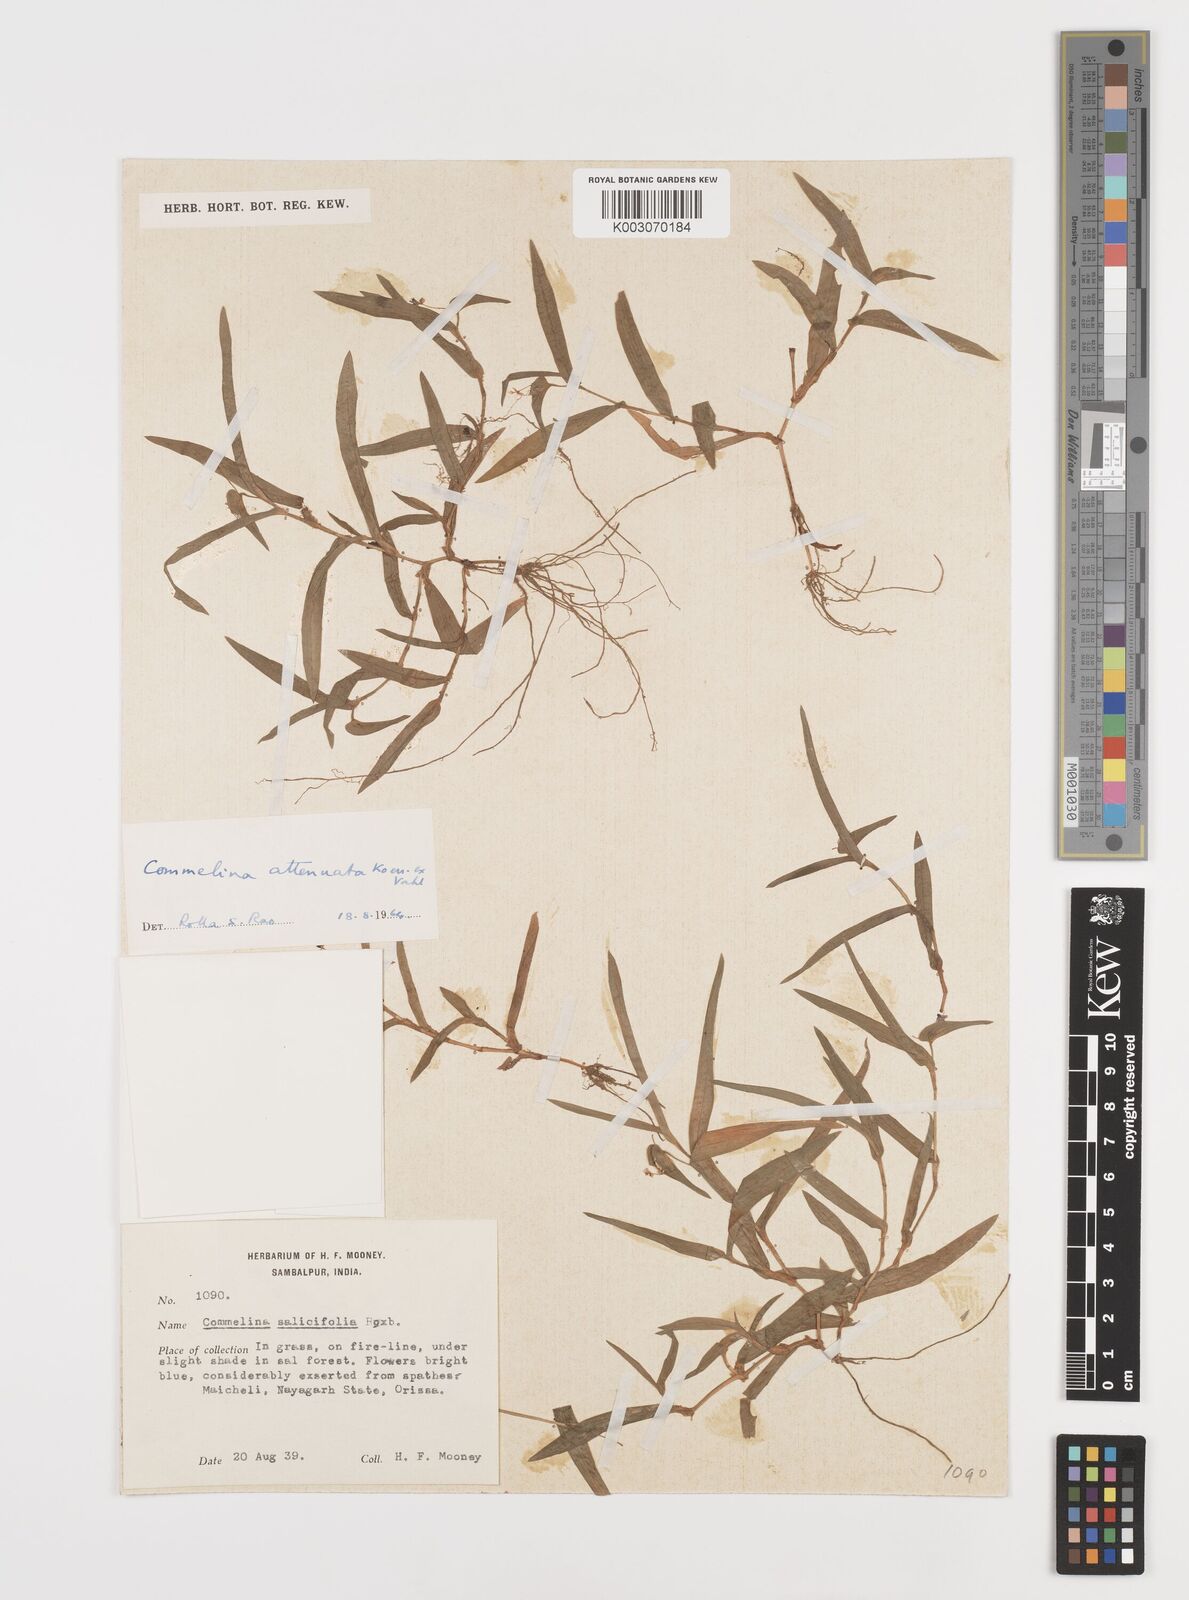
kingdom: Plantae
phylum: Tracheophyta
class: Liliopsida
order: Commelinales
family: Commelinaceae
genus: Commelina
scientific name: Commelina attenuata
